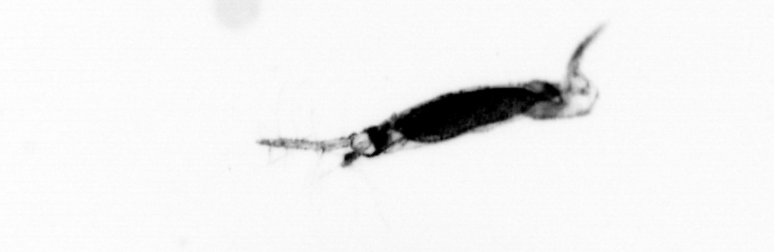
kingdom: Animalia
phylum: Arthropoda
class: Copepoda
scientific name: Copepoda
